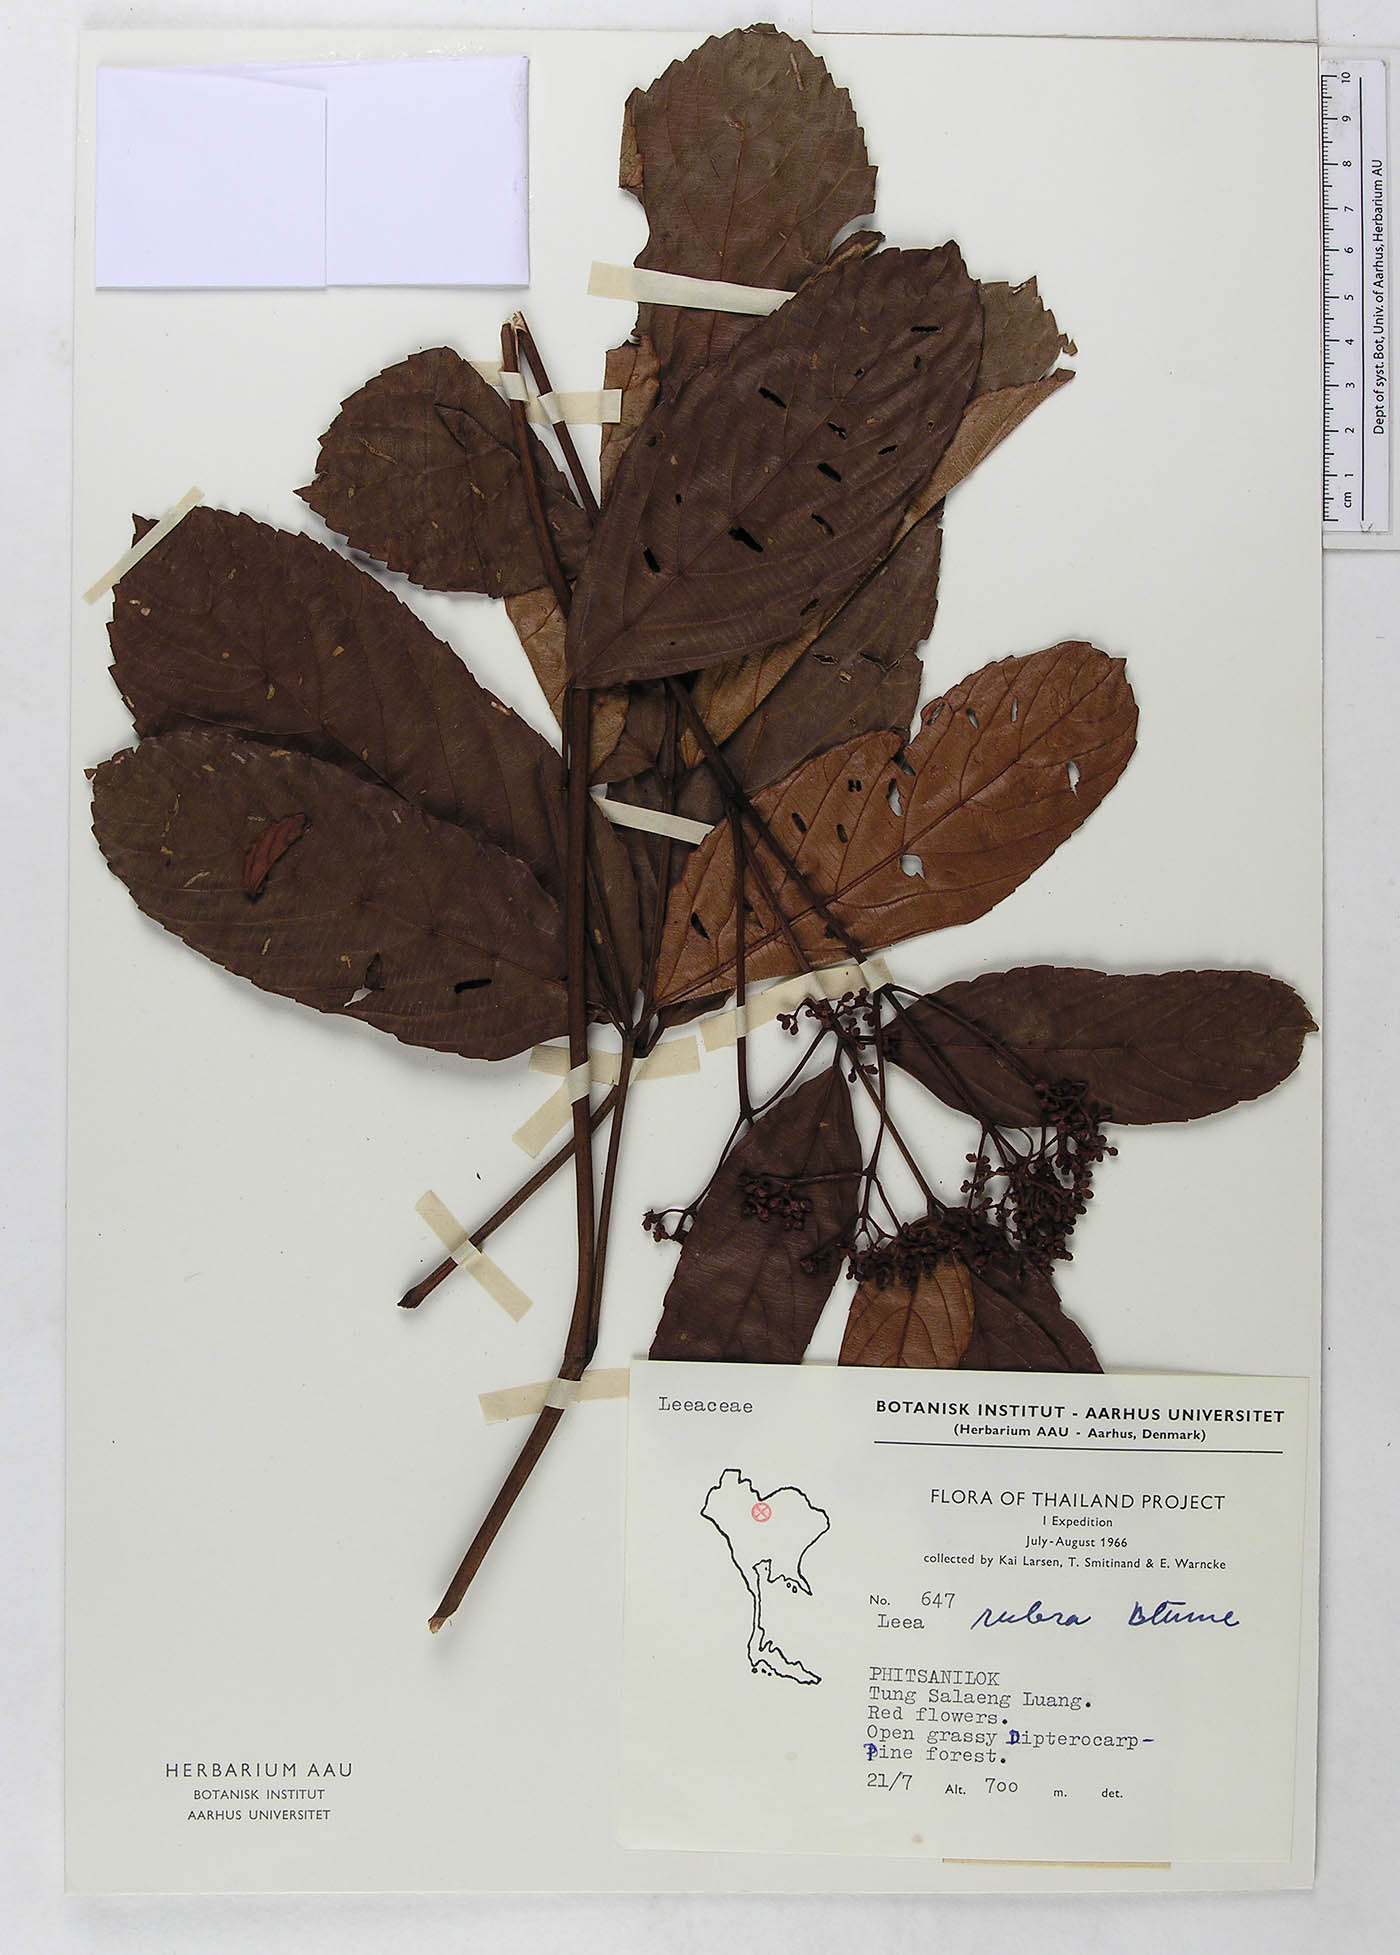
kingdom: Plantae
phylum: Tracheophyta
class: Magnoliopsida
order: Vitales
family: Vitaceae
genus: Leea
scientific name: Leea guineensis
